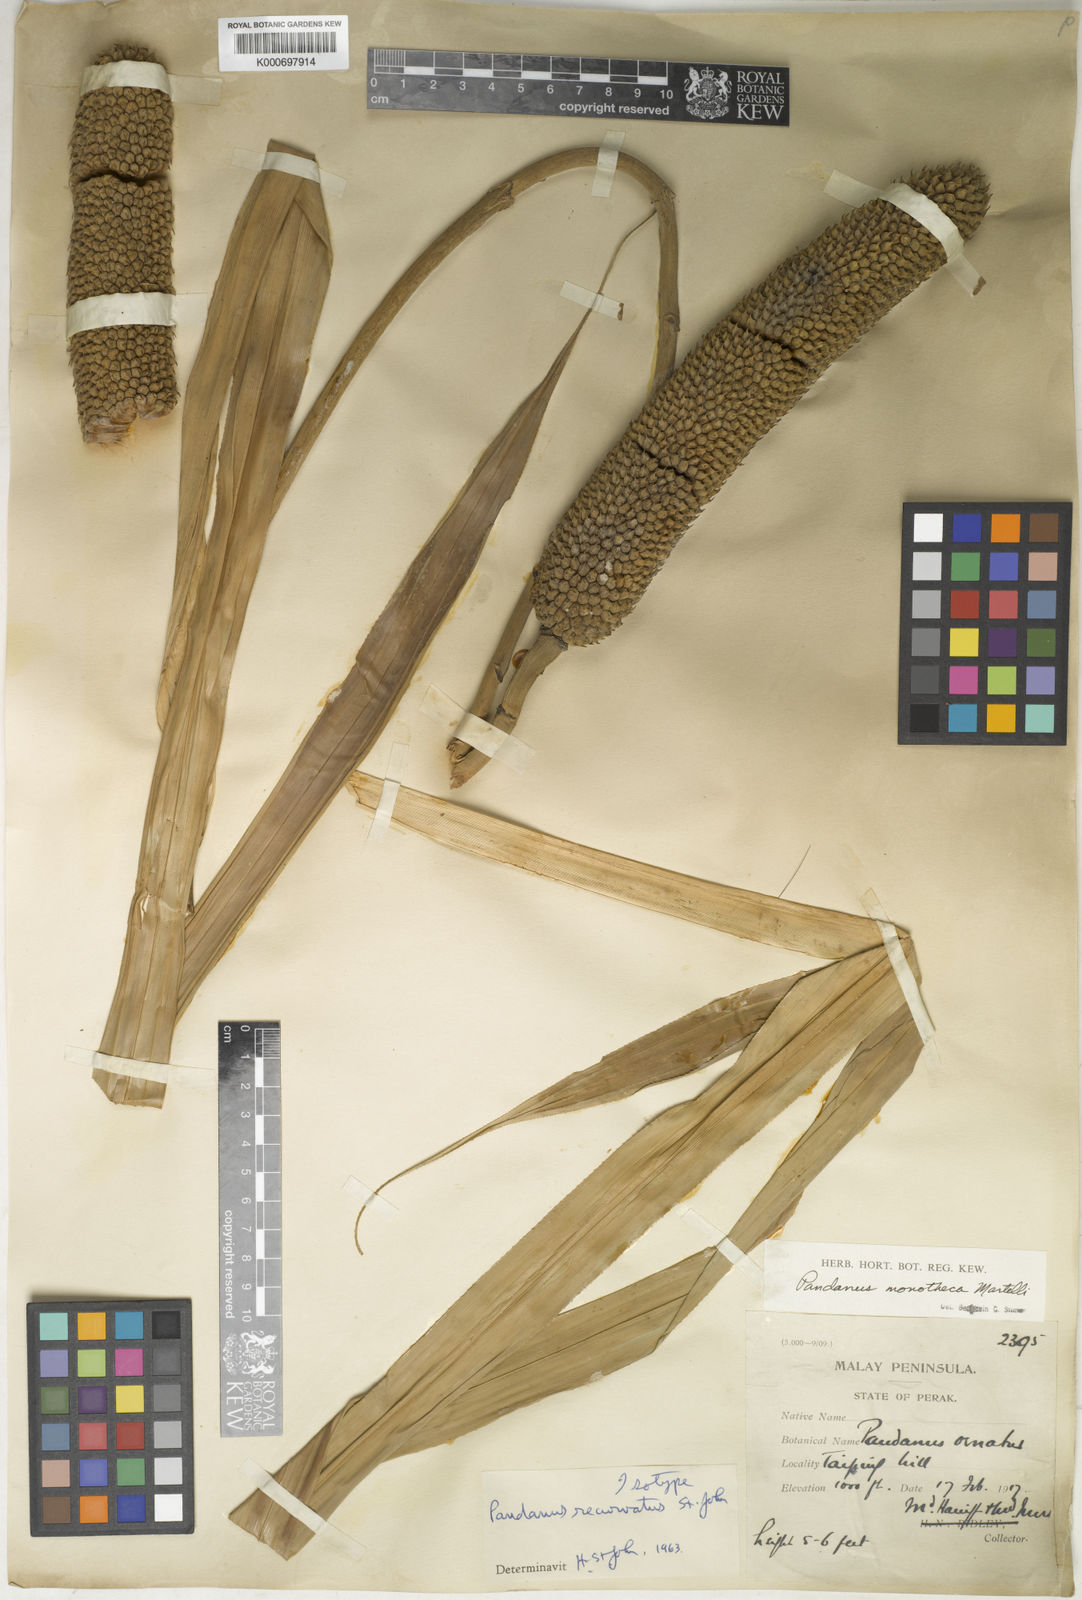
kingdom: Plantae
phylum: Tracheophyta
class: Liliopsida
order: Pandanales
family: Pandanaceae
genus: Pandanus
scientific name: Pandanus ornatus
